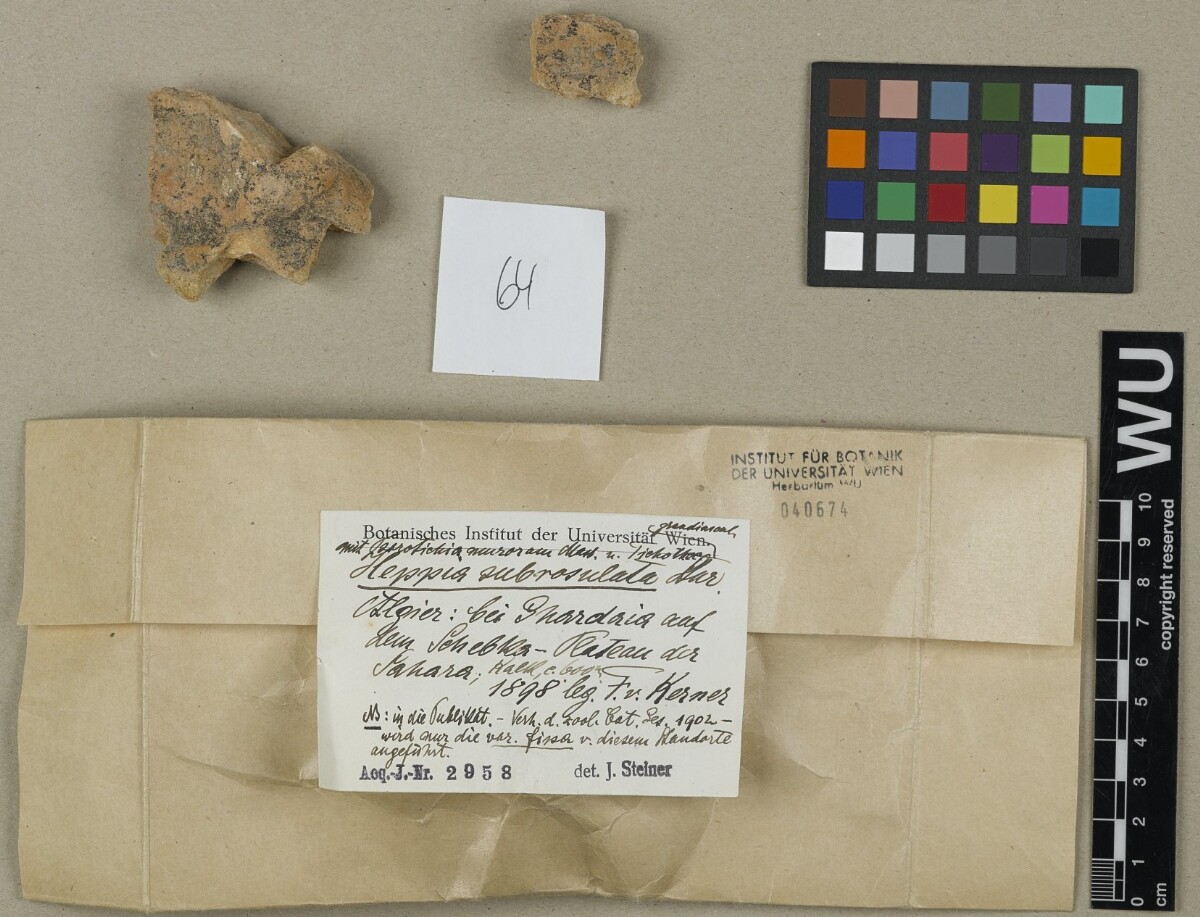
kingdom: Fungi
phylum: Ascomycota
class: Lichinomycetes
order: Lichinales
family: Lichinaceae
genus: Heppia
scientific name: Heppia
